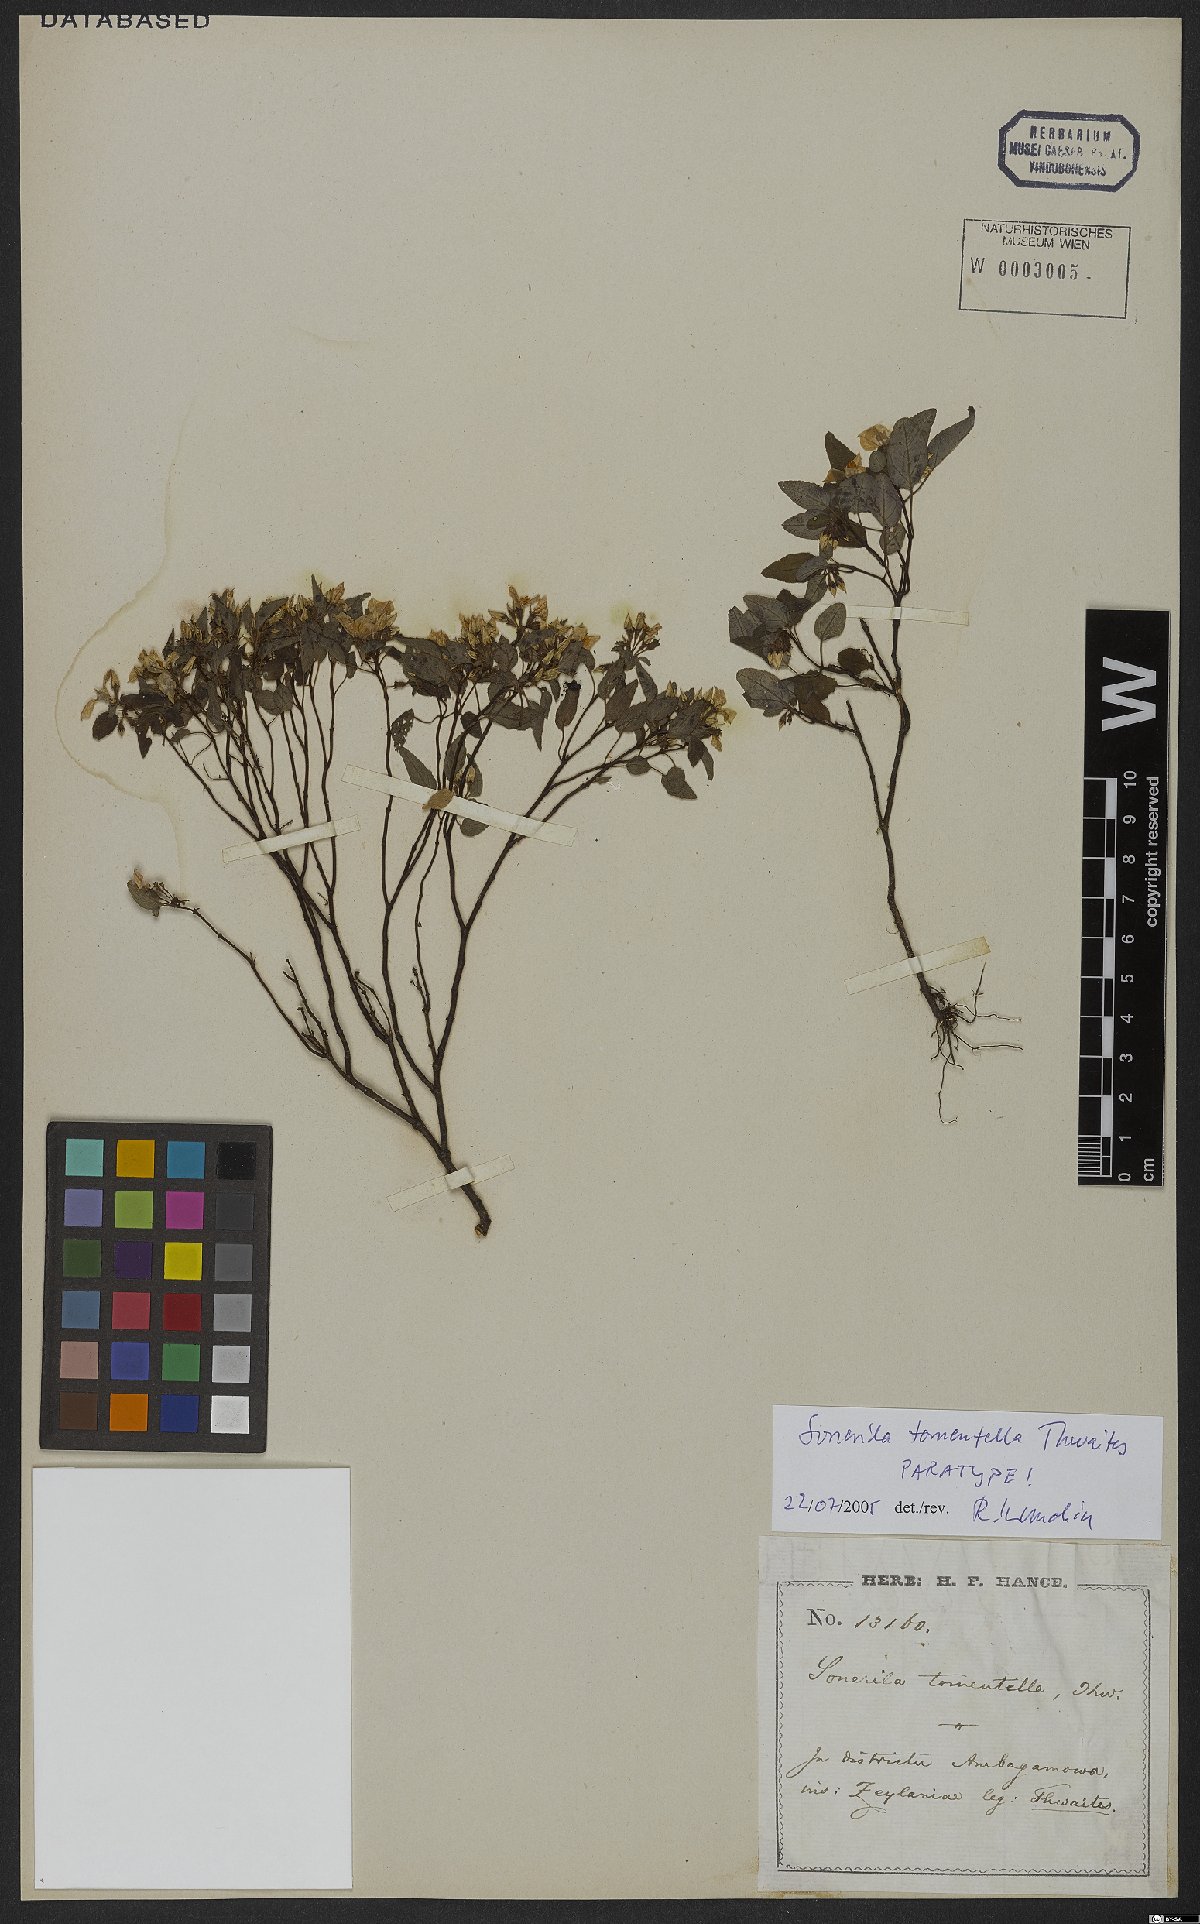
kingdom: Plantae
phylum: Tracheophyta
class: Magnoliopsida
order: Myrtales
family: Melastomataceae
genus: Sonerila
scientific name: Sonerila tomentella
